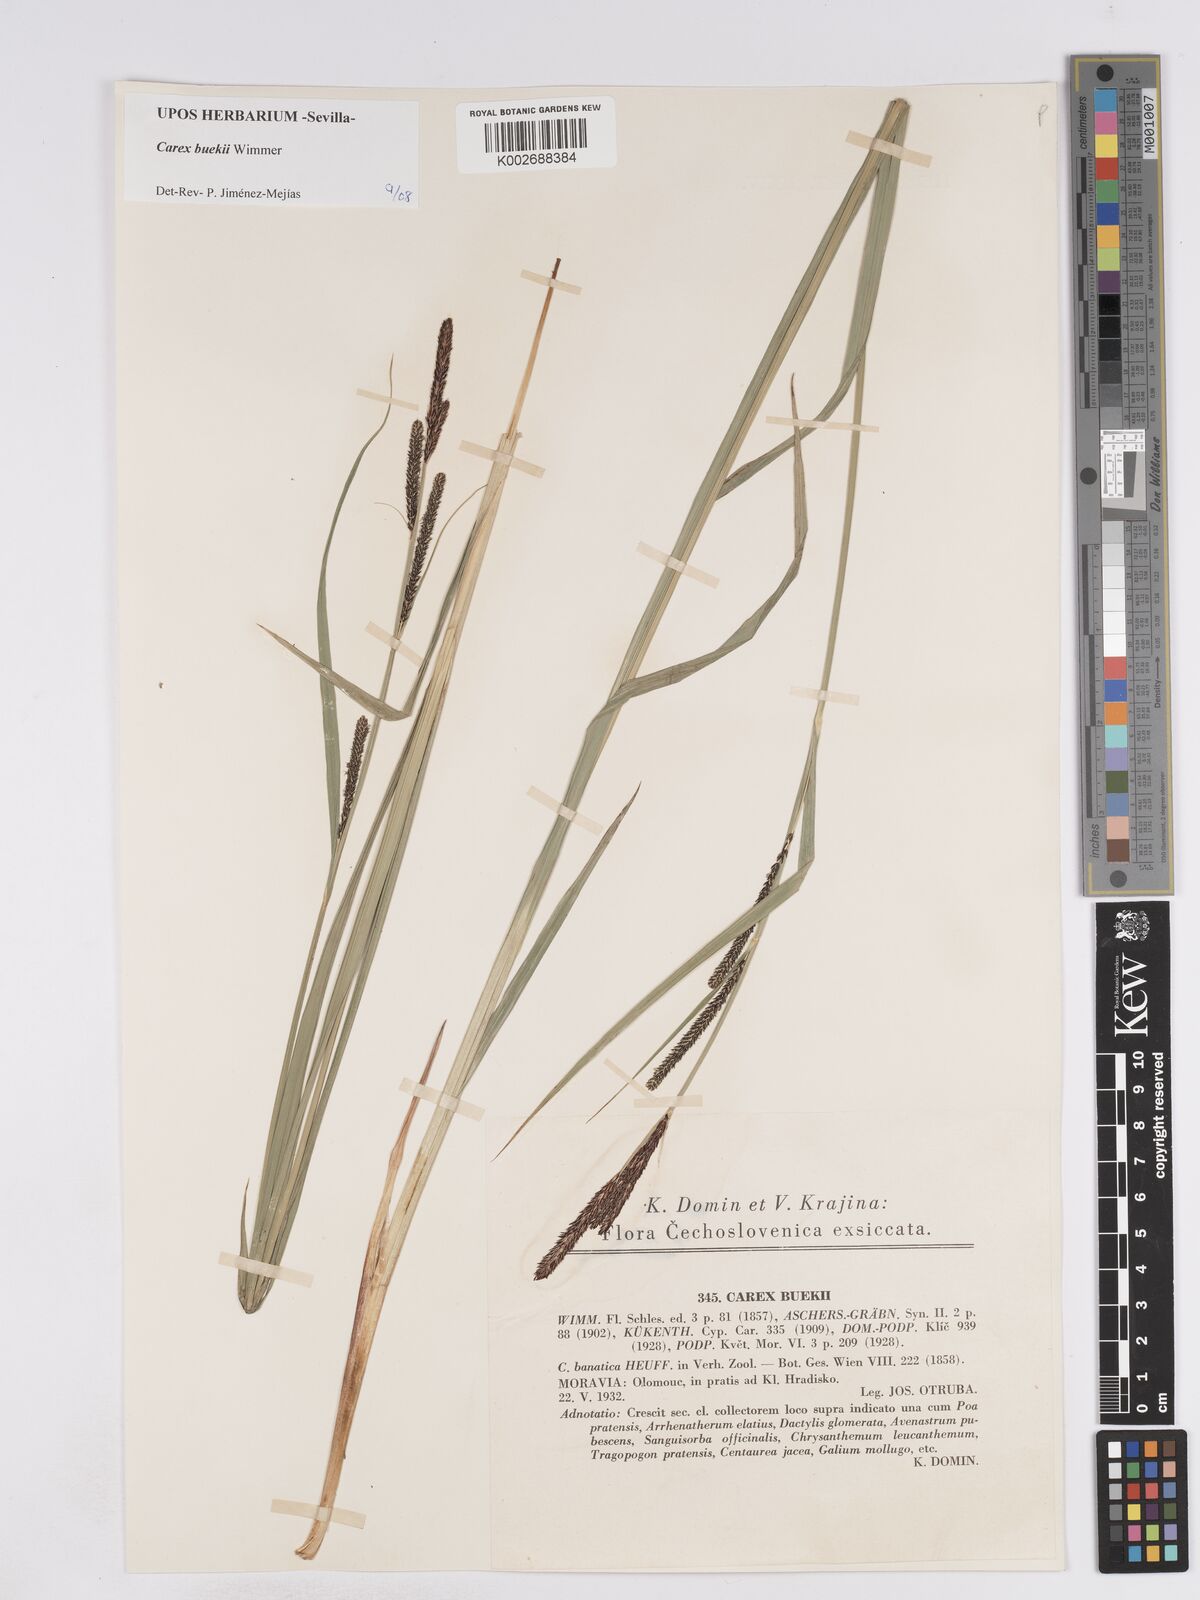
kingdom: Plantae
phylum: Tracheophyta
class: Liliopsida
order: Poales
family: Cyperaceae
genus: Carex
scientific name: Carex buekii
